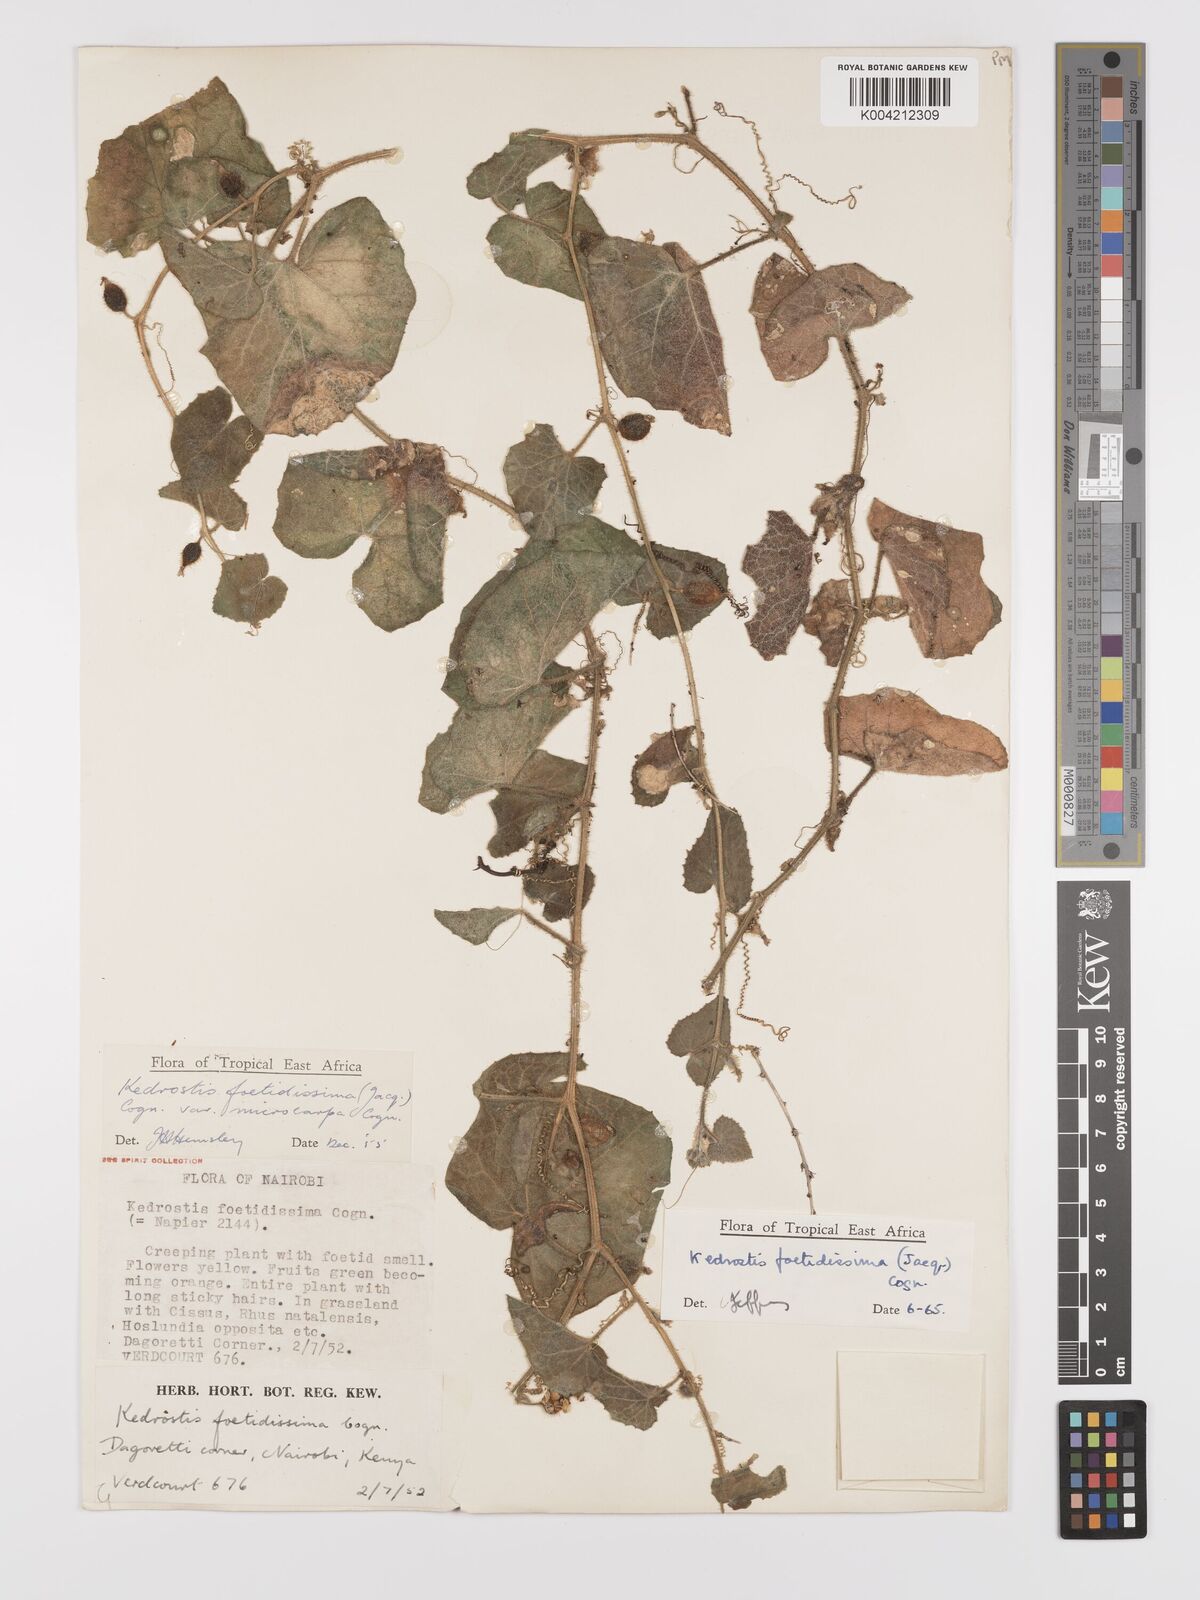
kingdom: Plantae
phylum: Tracheophyta
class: Magnoliopsida
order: Cucurbitales
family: Cucurbitaceae
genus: Kedrostis
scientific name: Kedrostis foetidissima
